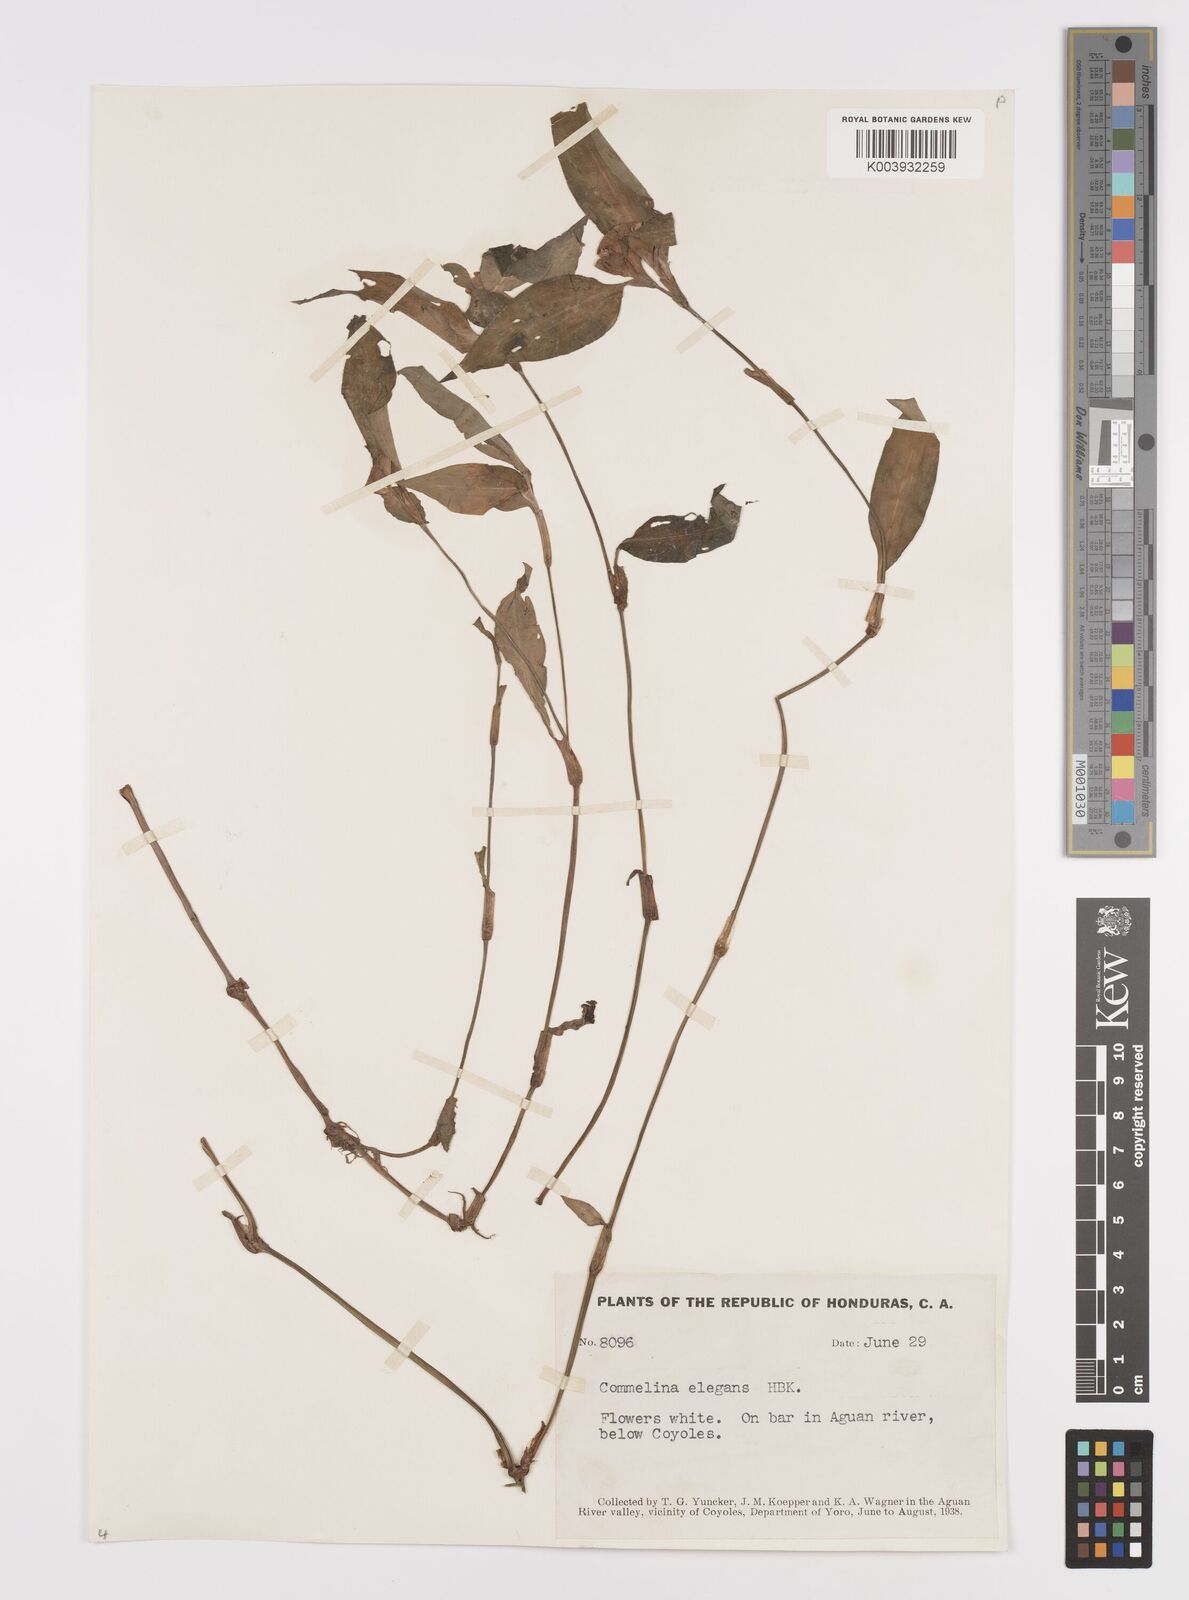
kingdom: Plantae
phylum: Tracheophyta
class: Liliopsida
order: Commelinales
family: Commelinaceae
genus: Commelina
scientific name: Commelina erecta
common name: Blousel blommetjie
